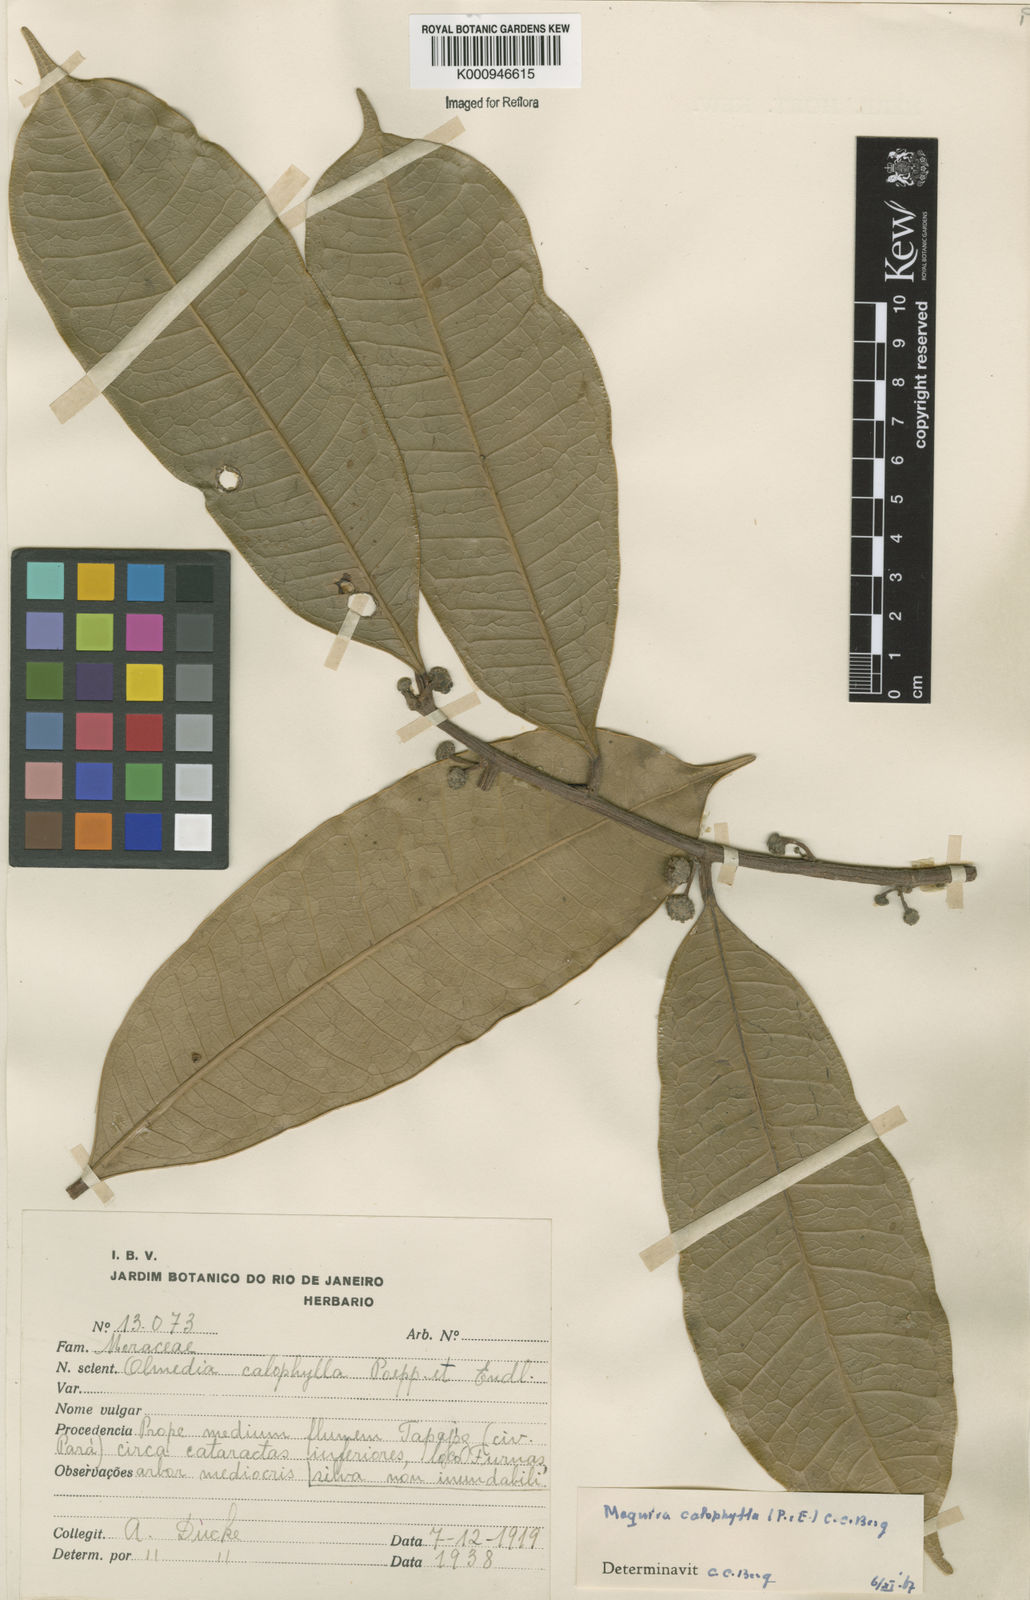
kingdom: Plantae
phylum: Tracheophyta
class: Magnoliopsida
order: Rosales
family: Moraceae
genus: Maquira
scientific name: Maquira calophylla
